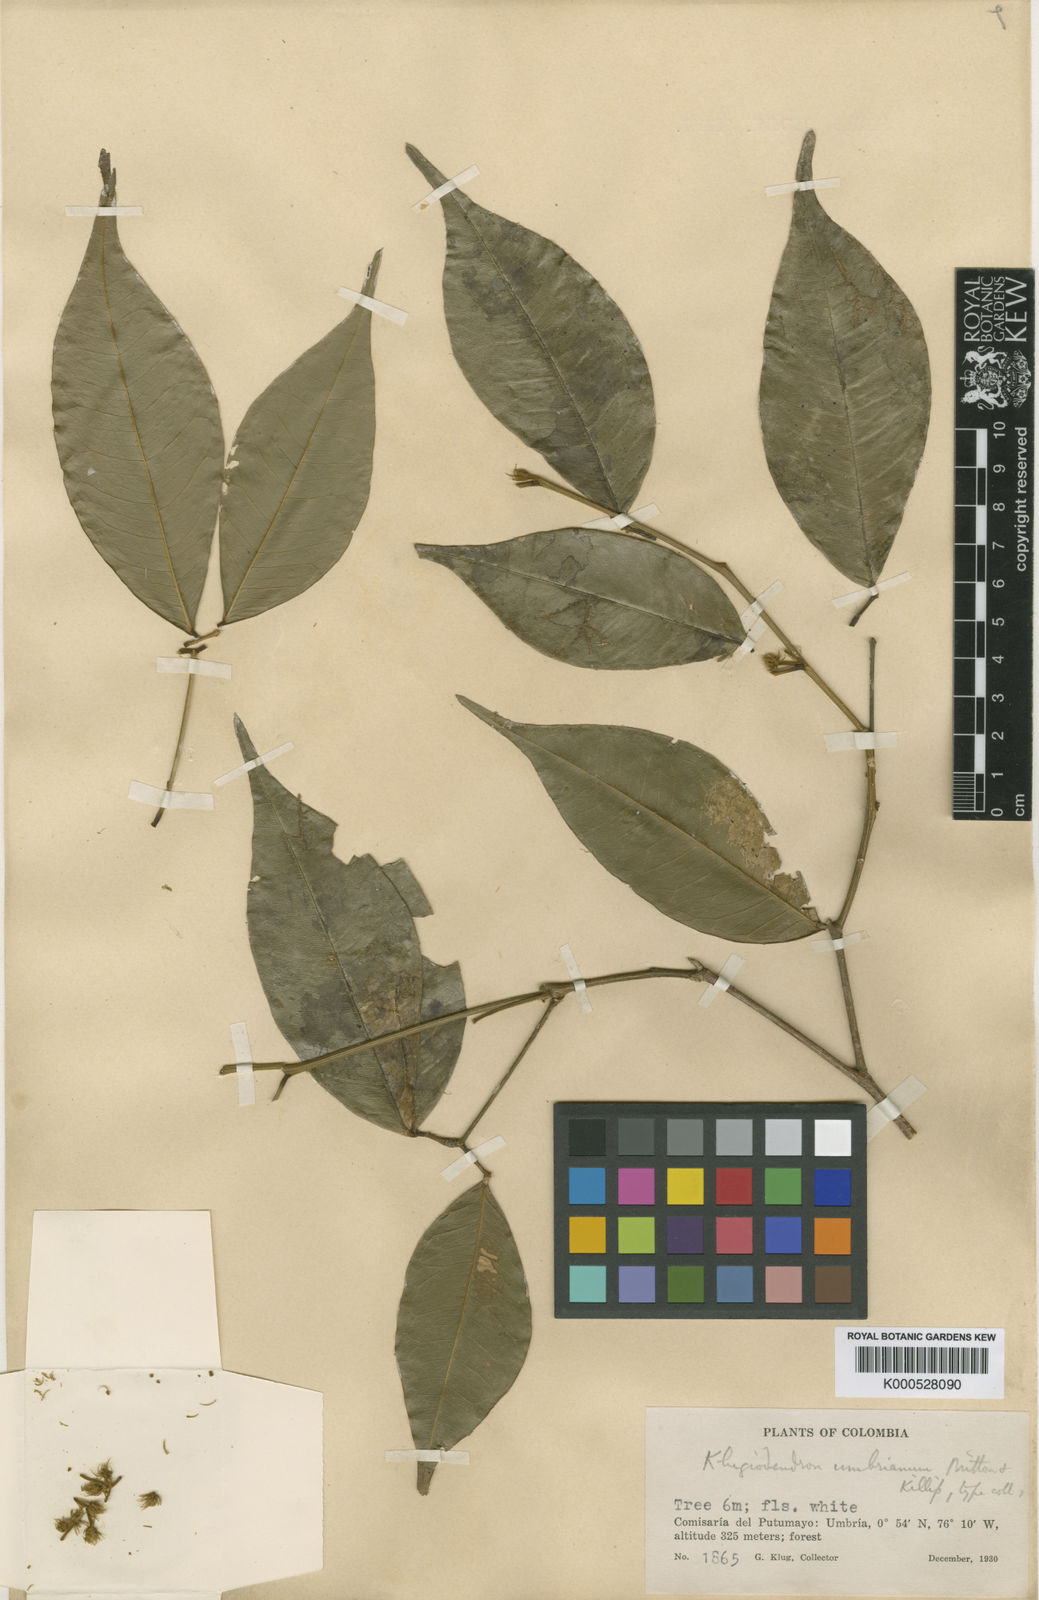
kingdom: Plantae
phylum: Tracheophyta
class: Magnoliopsida
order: Fabales
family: Fabaceae
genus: Jupunba
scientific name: Jupunba laeta
